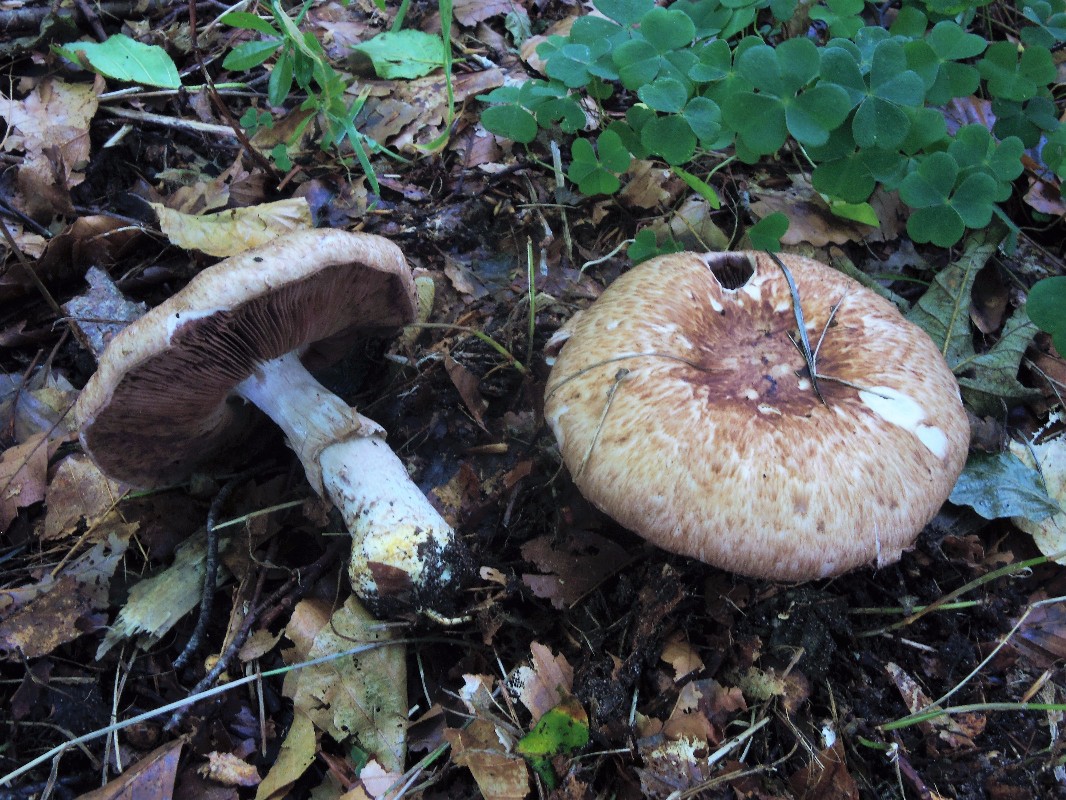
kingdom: Fungi
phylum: Basidiomycota
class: Agaricomycetes
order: Agaricales
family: Agaricaceae
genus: Agaricus
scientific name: Agaricus sylvaticus
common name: lille blod-champignon
